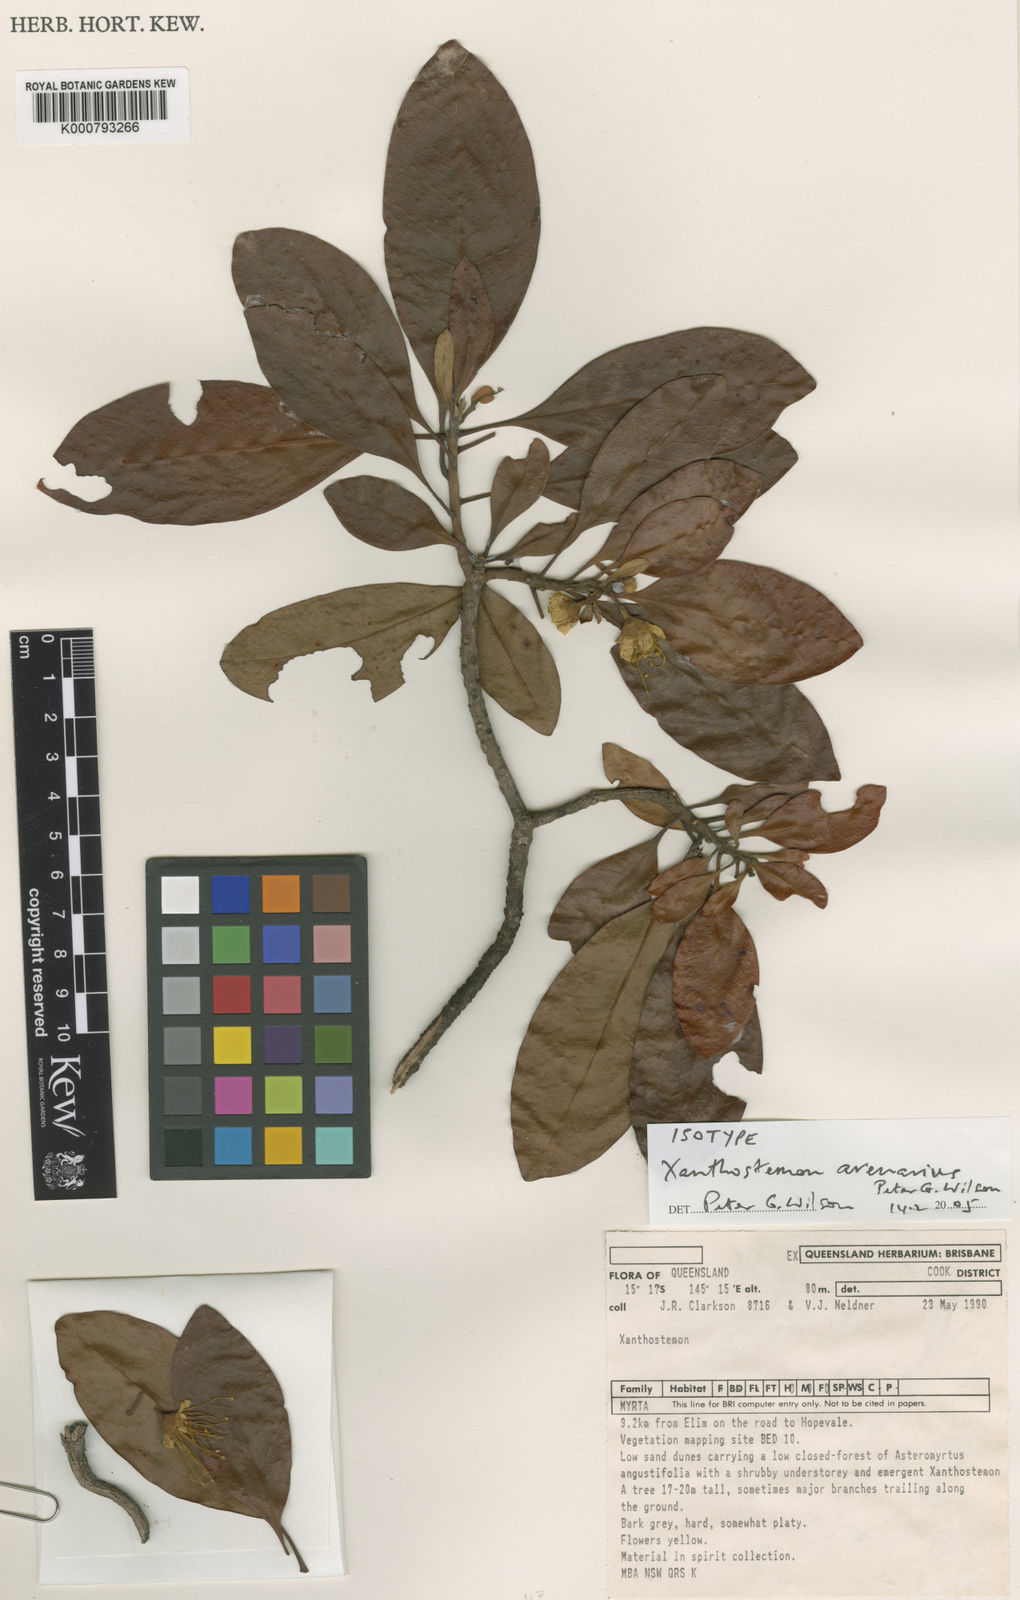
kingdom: Plantae
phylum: Tracheophyta
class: Magnoliopsida
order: Myrtales
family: Myrtaceae
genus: Xanthostemon
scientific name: Xanthostemon arenarius
